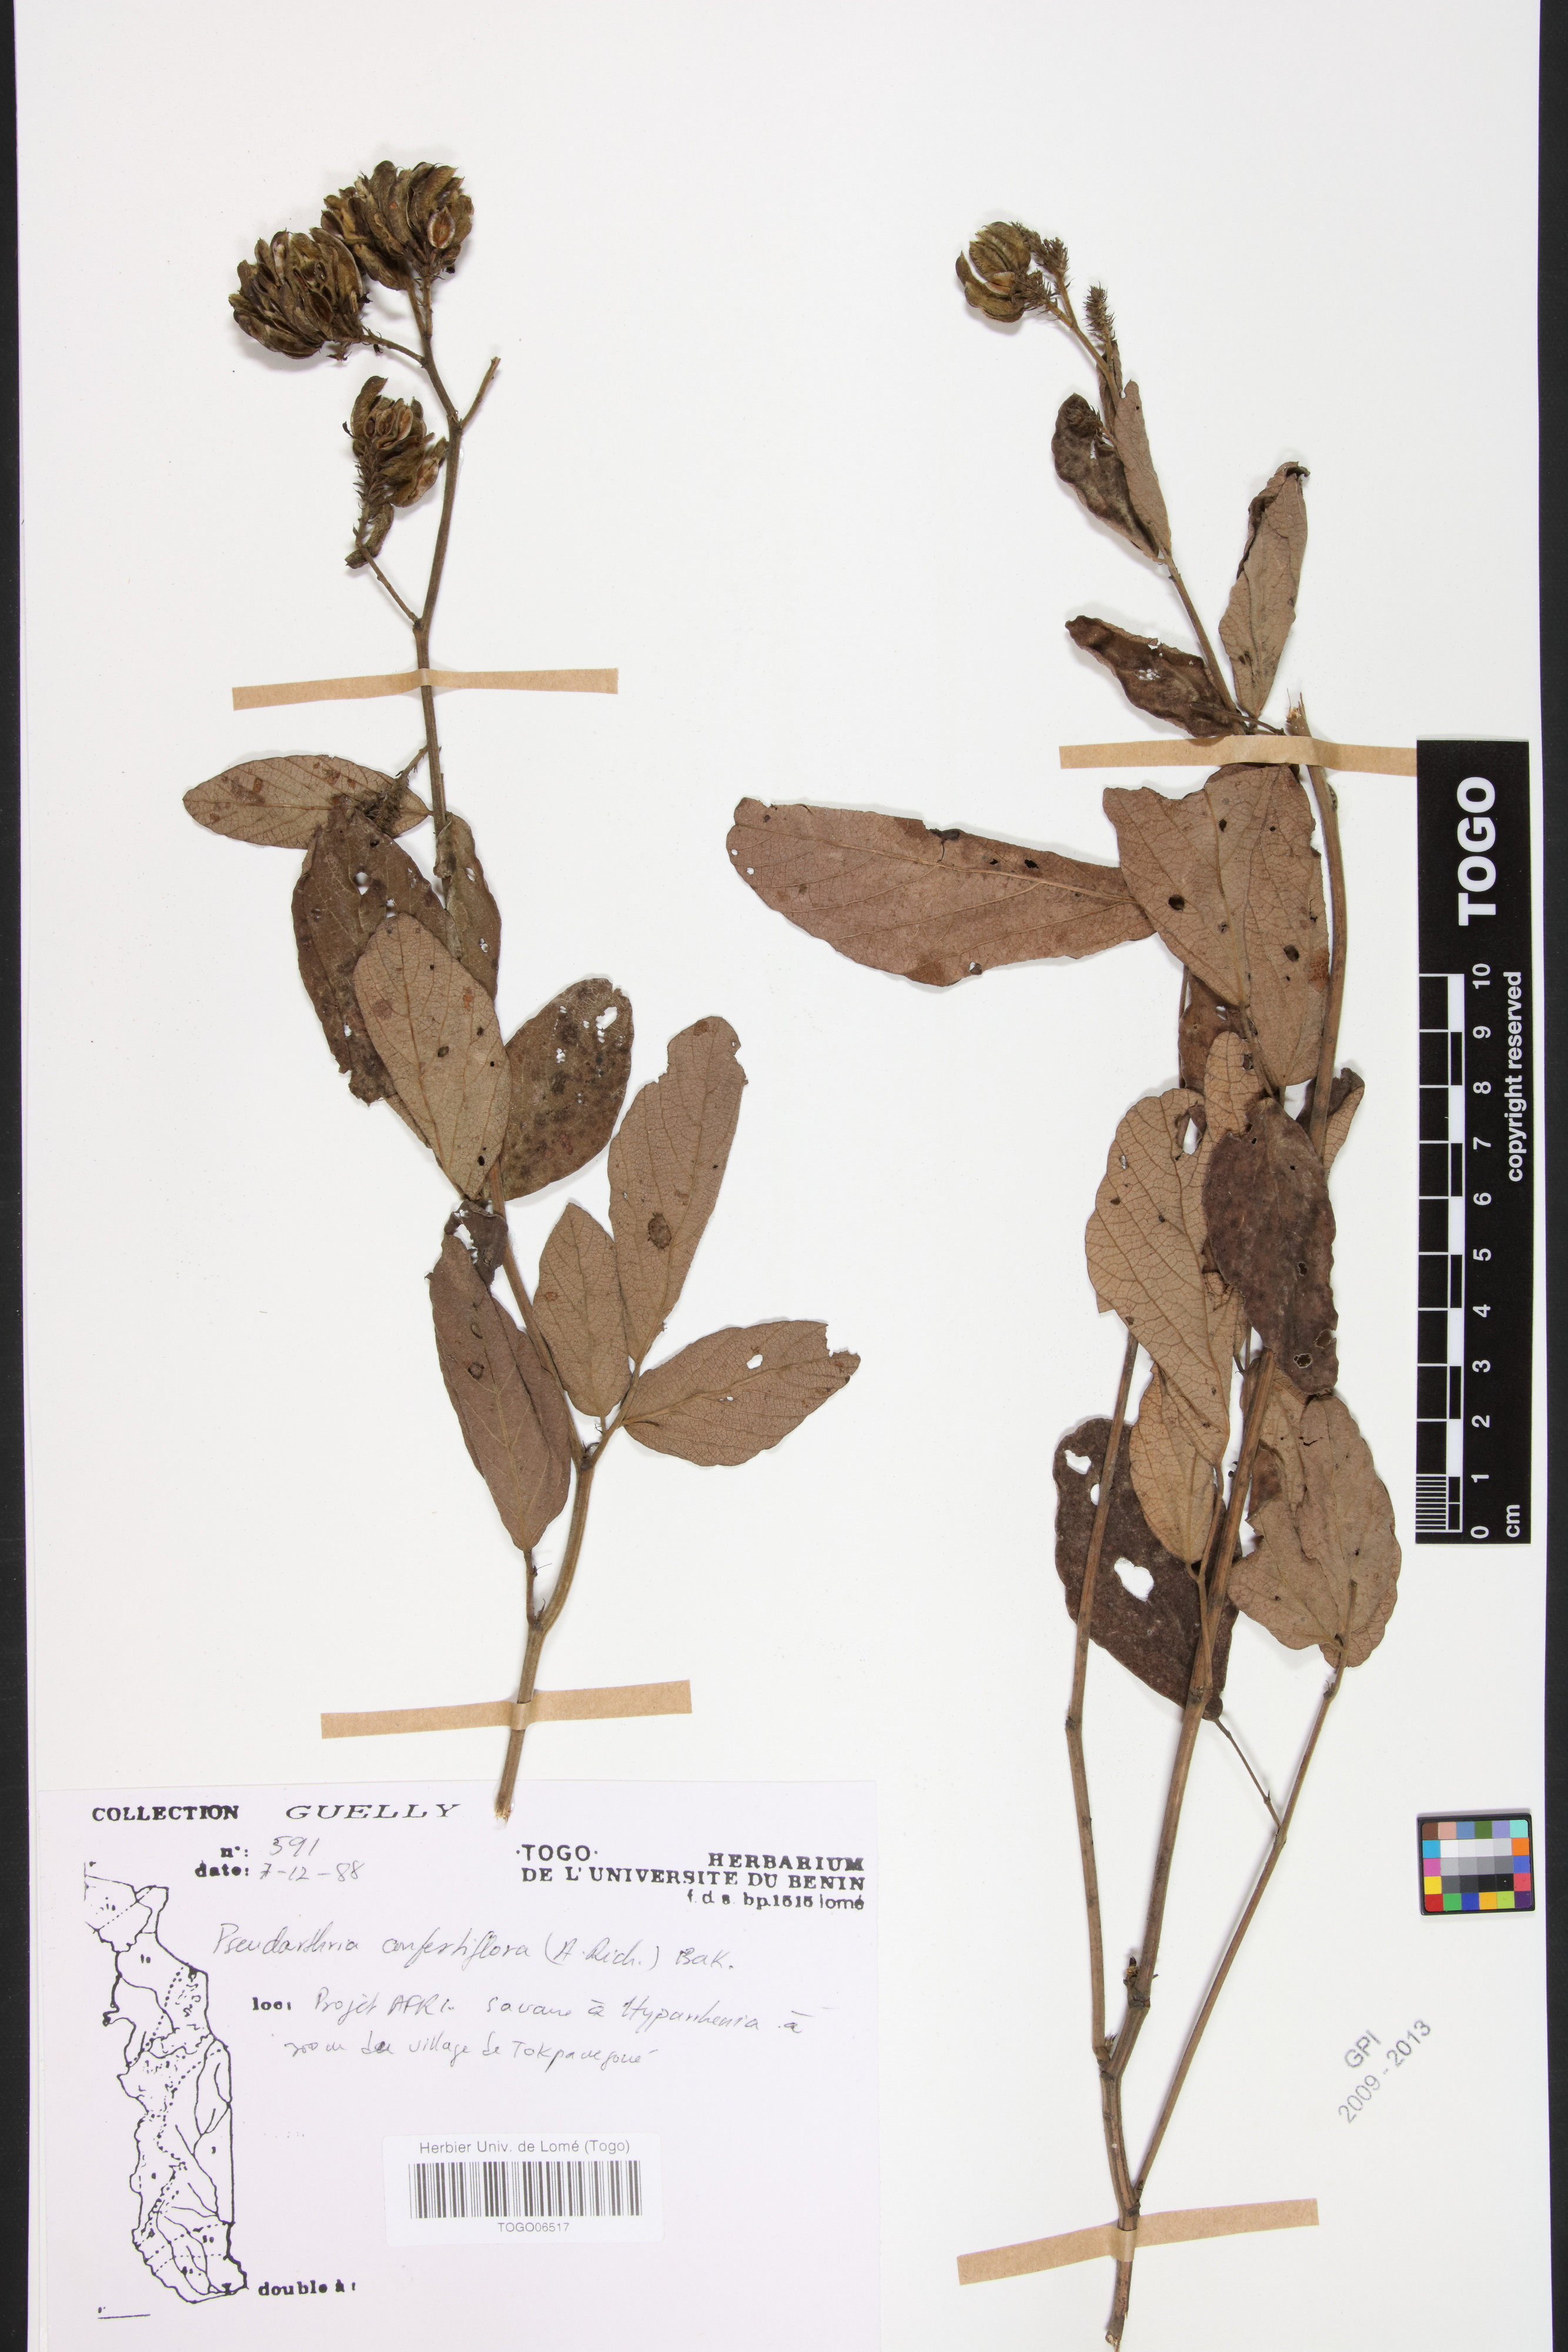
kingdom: Plantae
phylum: Tracheophyta
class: Magnoliopsida
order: Fabales
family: Fabaceae
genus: Pseudarthria
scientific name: Pseudarthria confertiflora
